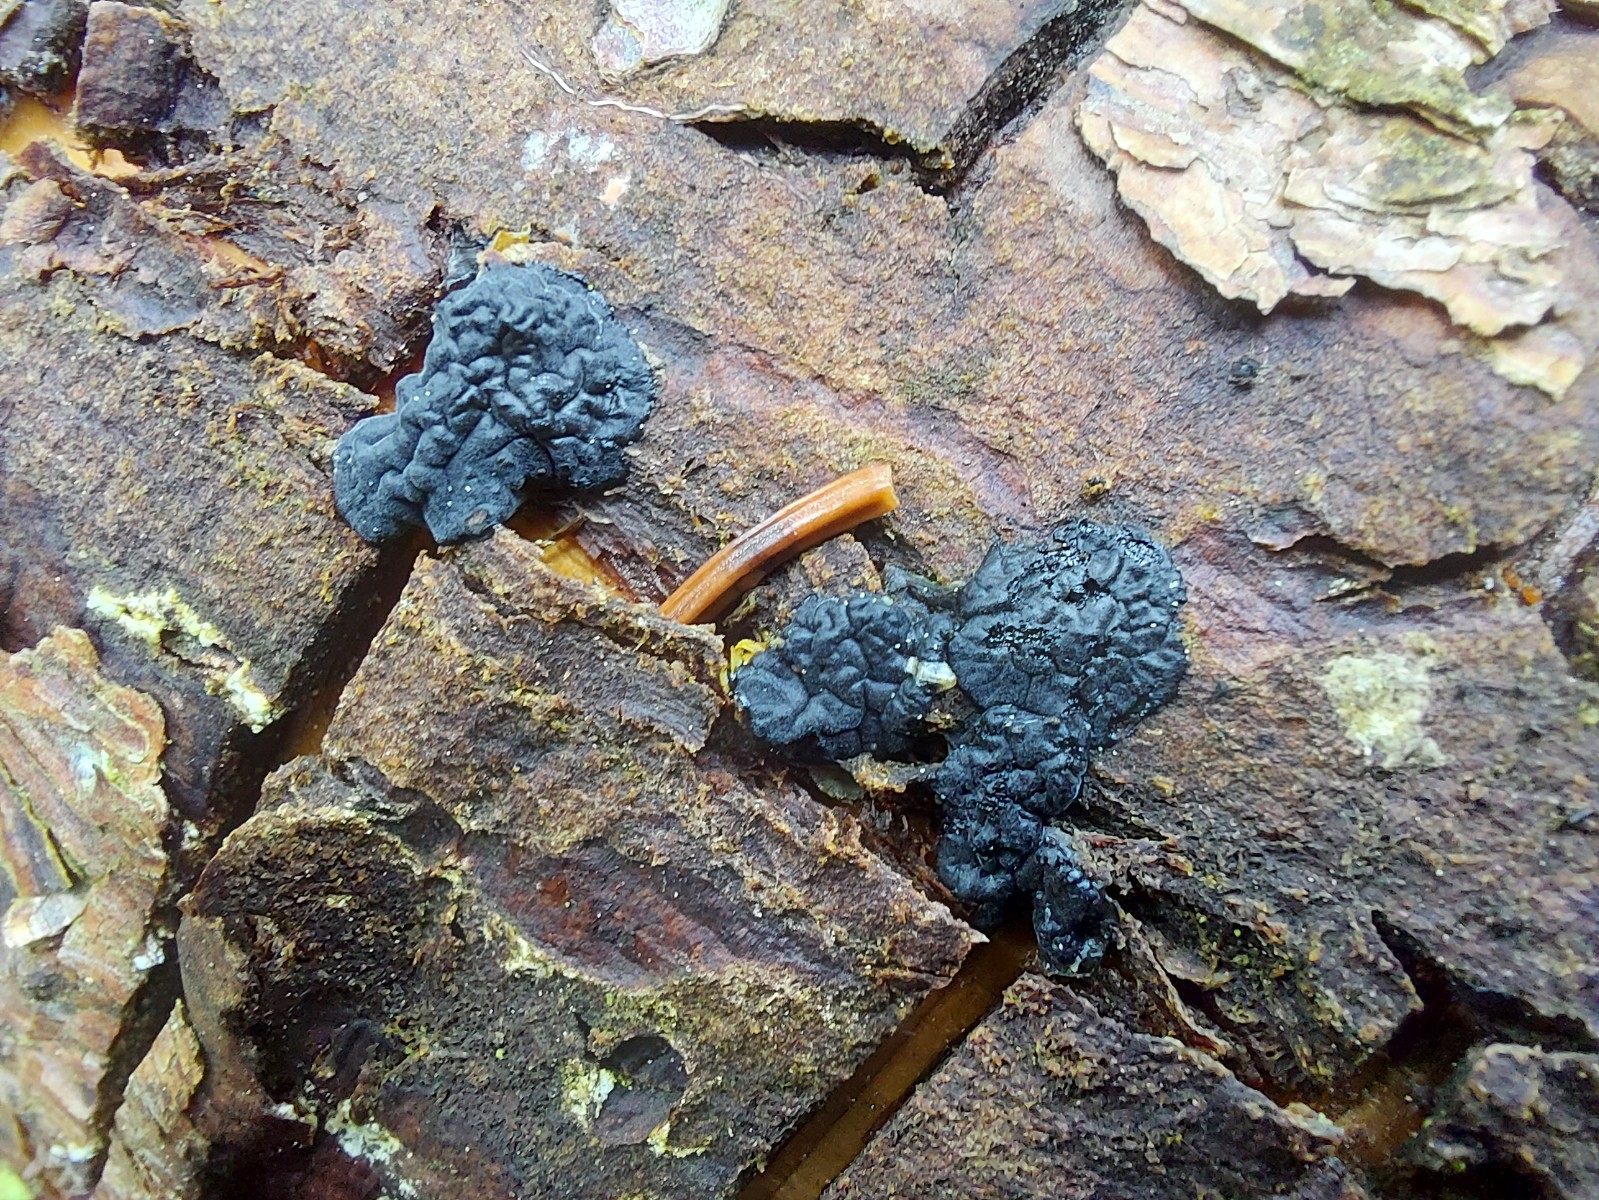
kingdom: Fungi
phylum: Basidiomycota
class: Agaricomycetes
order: Auriculariales
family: Auriculariaceae
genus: Exidia
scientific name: Exidia pithya
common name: gran-bævretop
